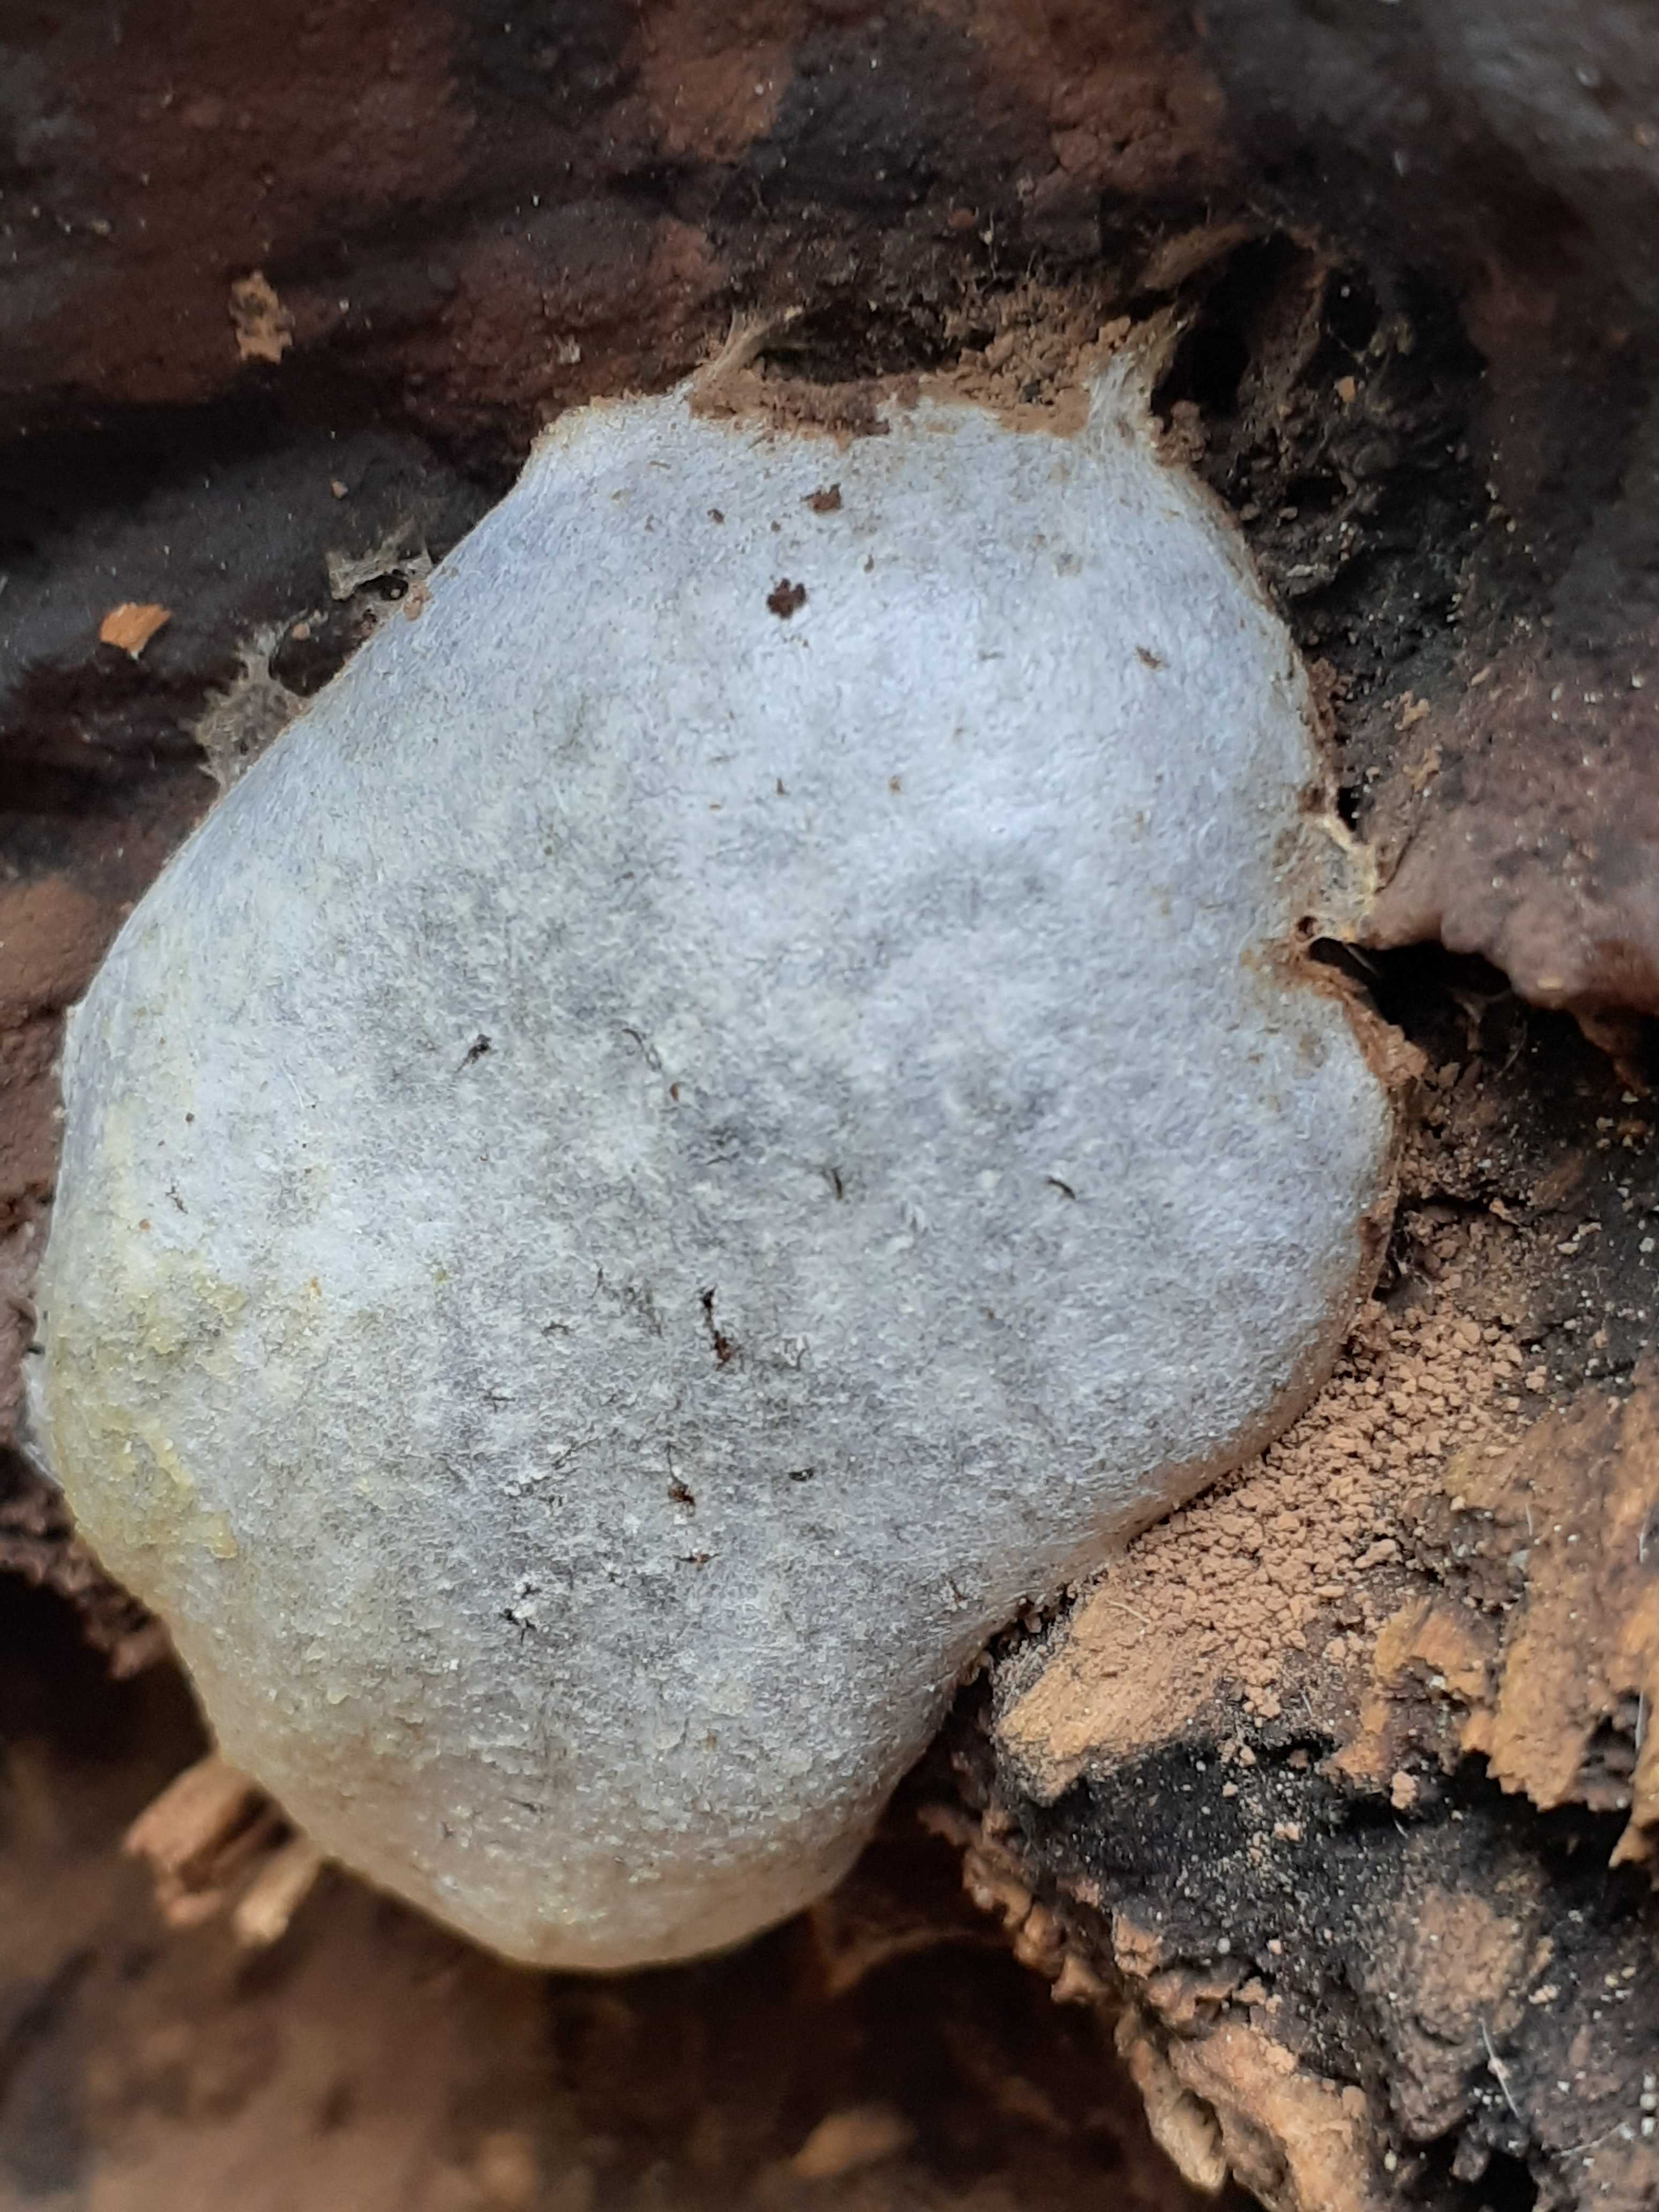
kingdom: Protozoa
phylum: Mycetozoa
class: Myxomycetes
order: Cribrariales
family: Tubiferaceae
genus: Reticularia
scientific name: Reticularia lycoperdon
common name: skinnende støvpude
